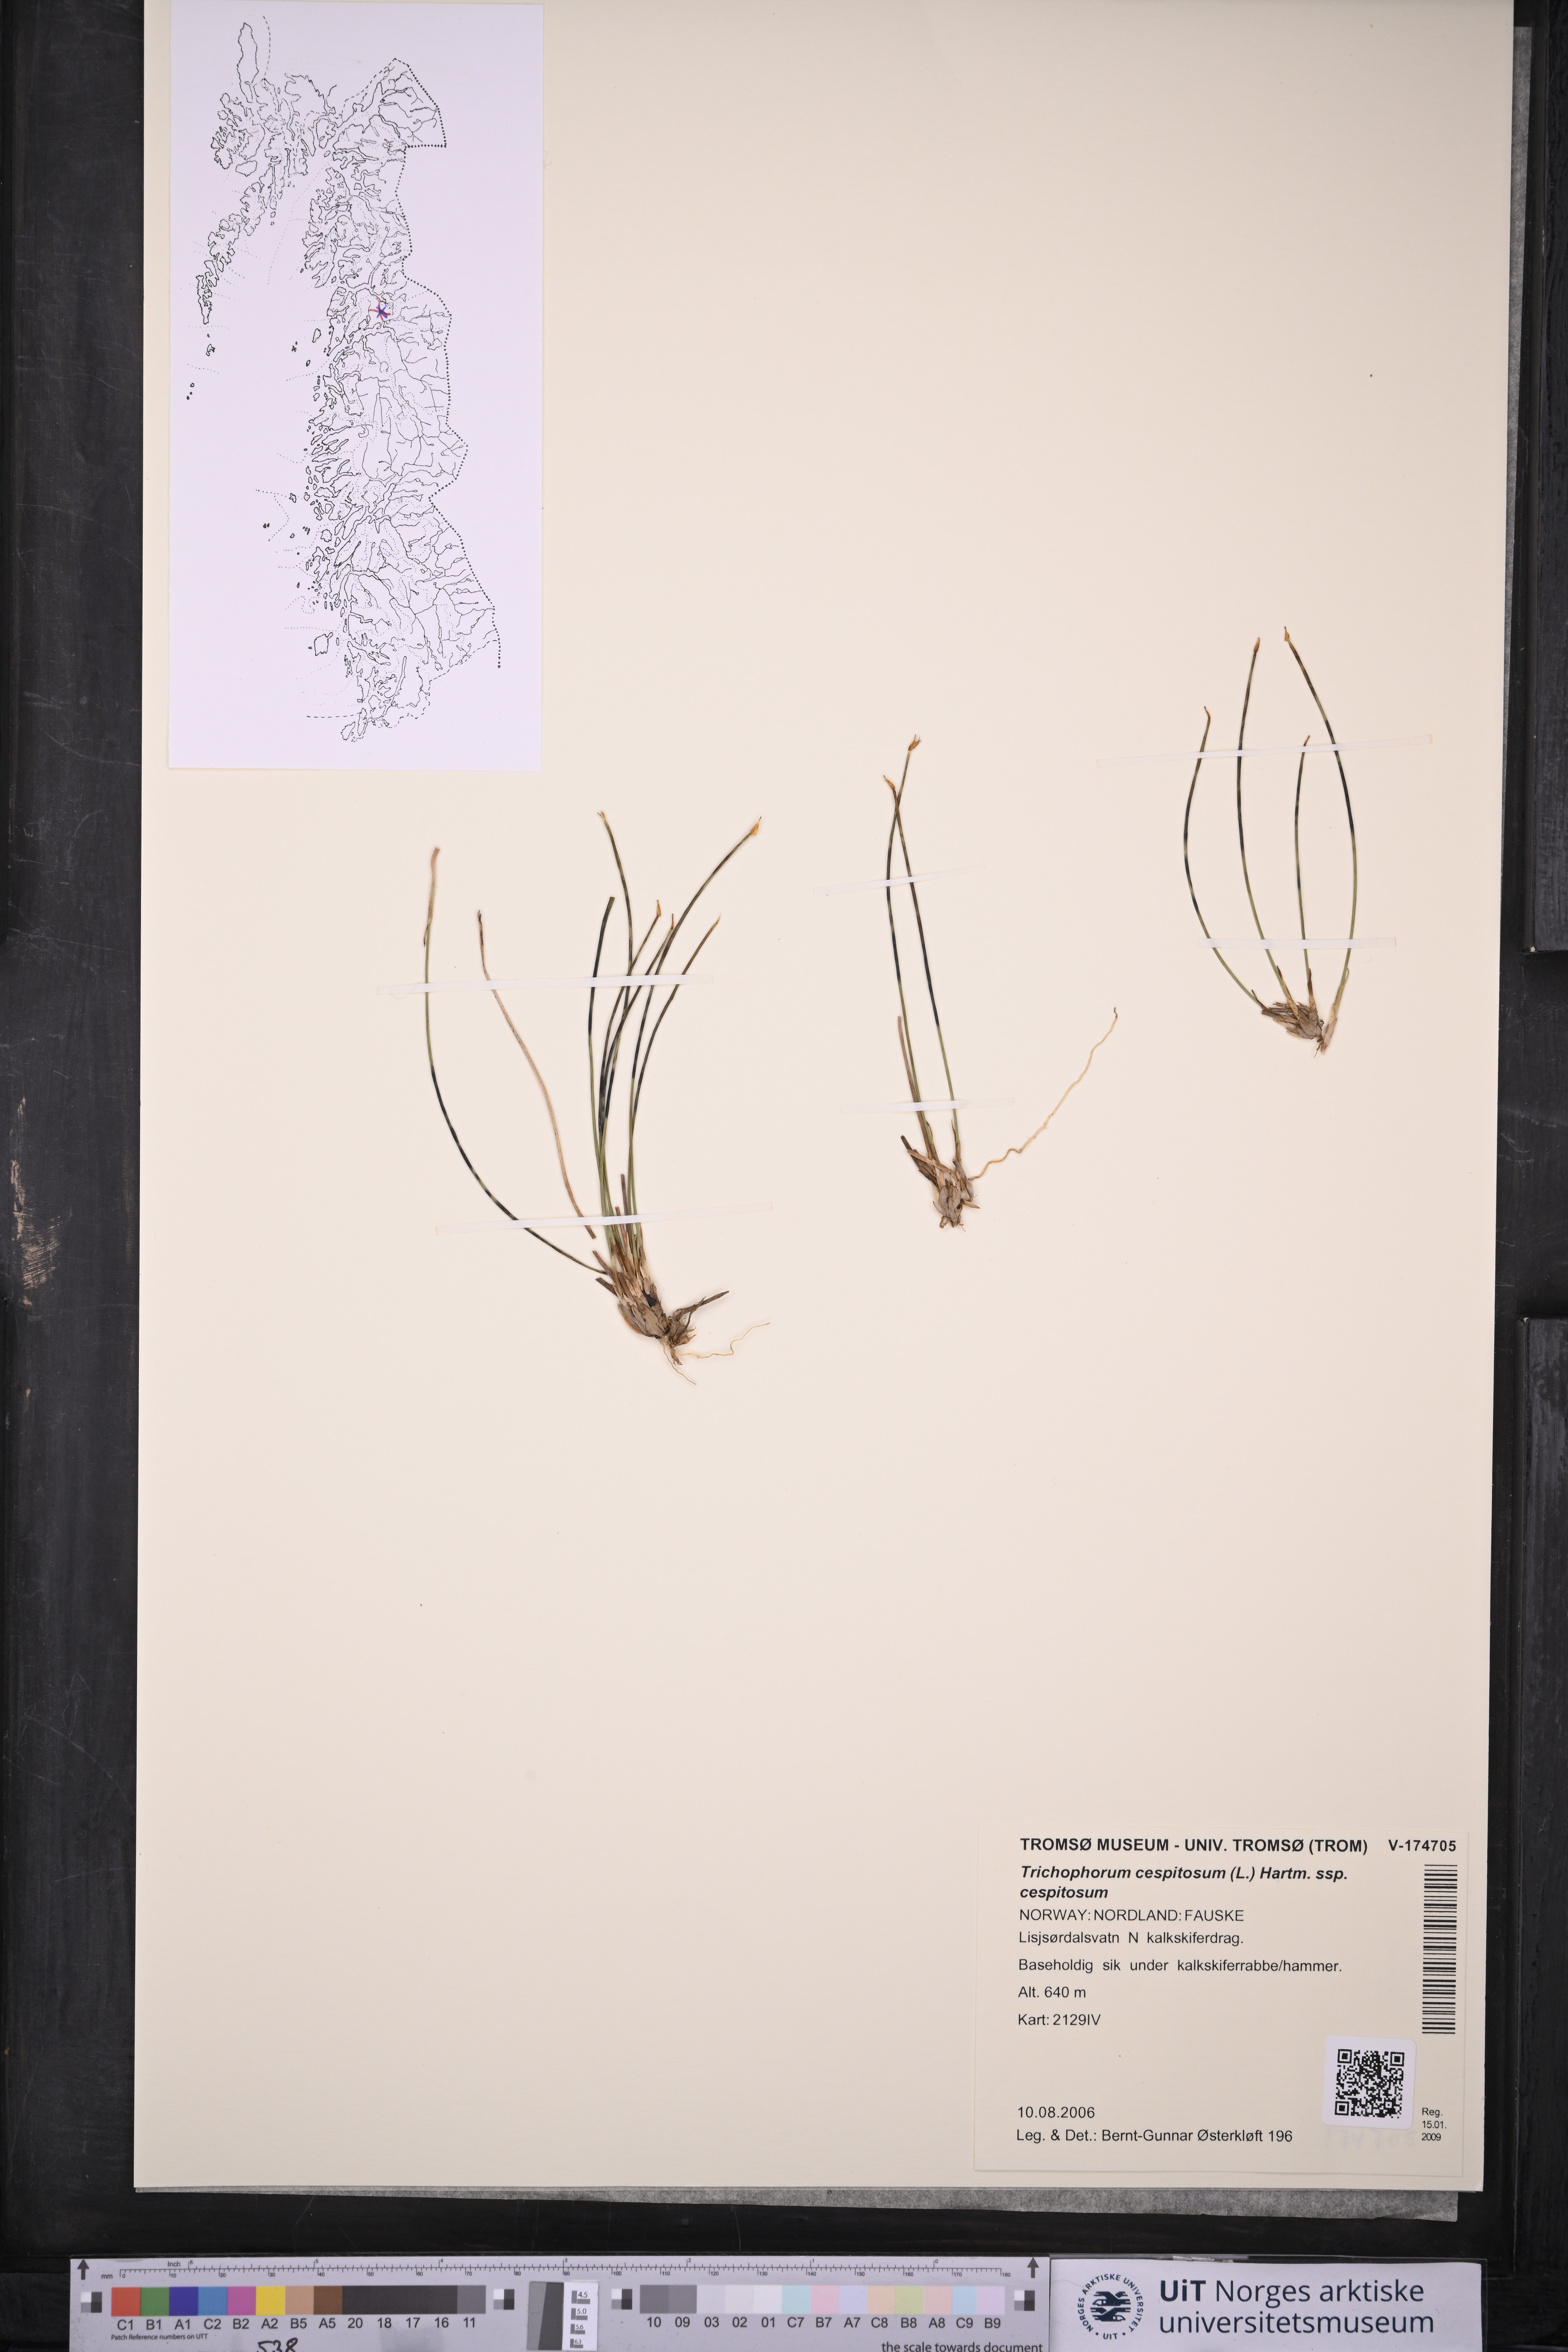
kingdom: Plantae
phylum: Tracheophyta
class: Liliopsida
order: Poales
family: Cyperaceae
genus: Trichophorum
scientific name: Trichophorum cespitosum
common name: Cespitose bulrush
